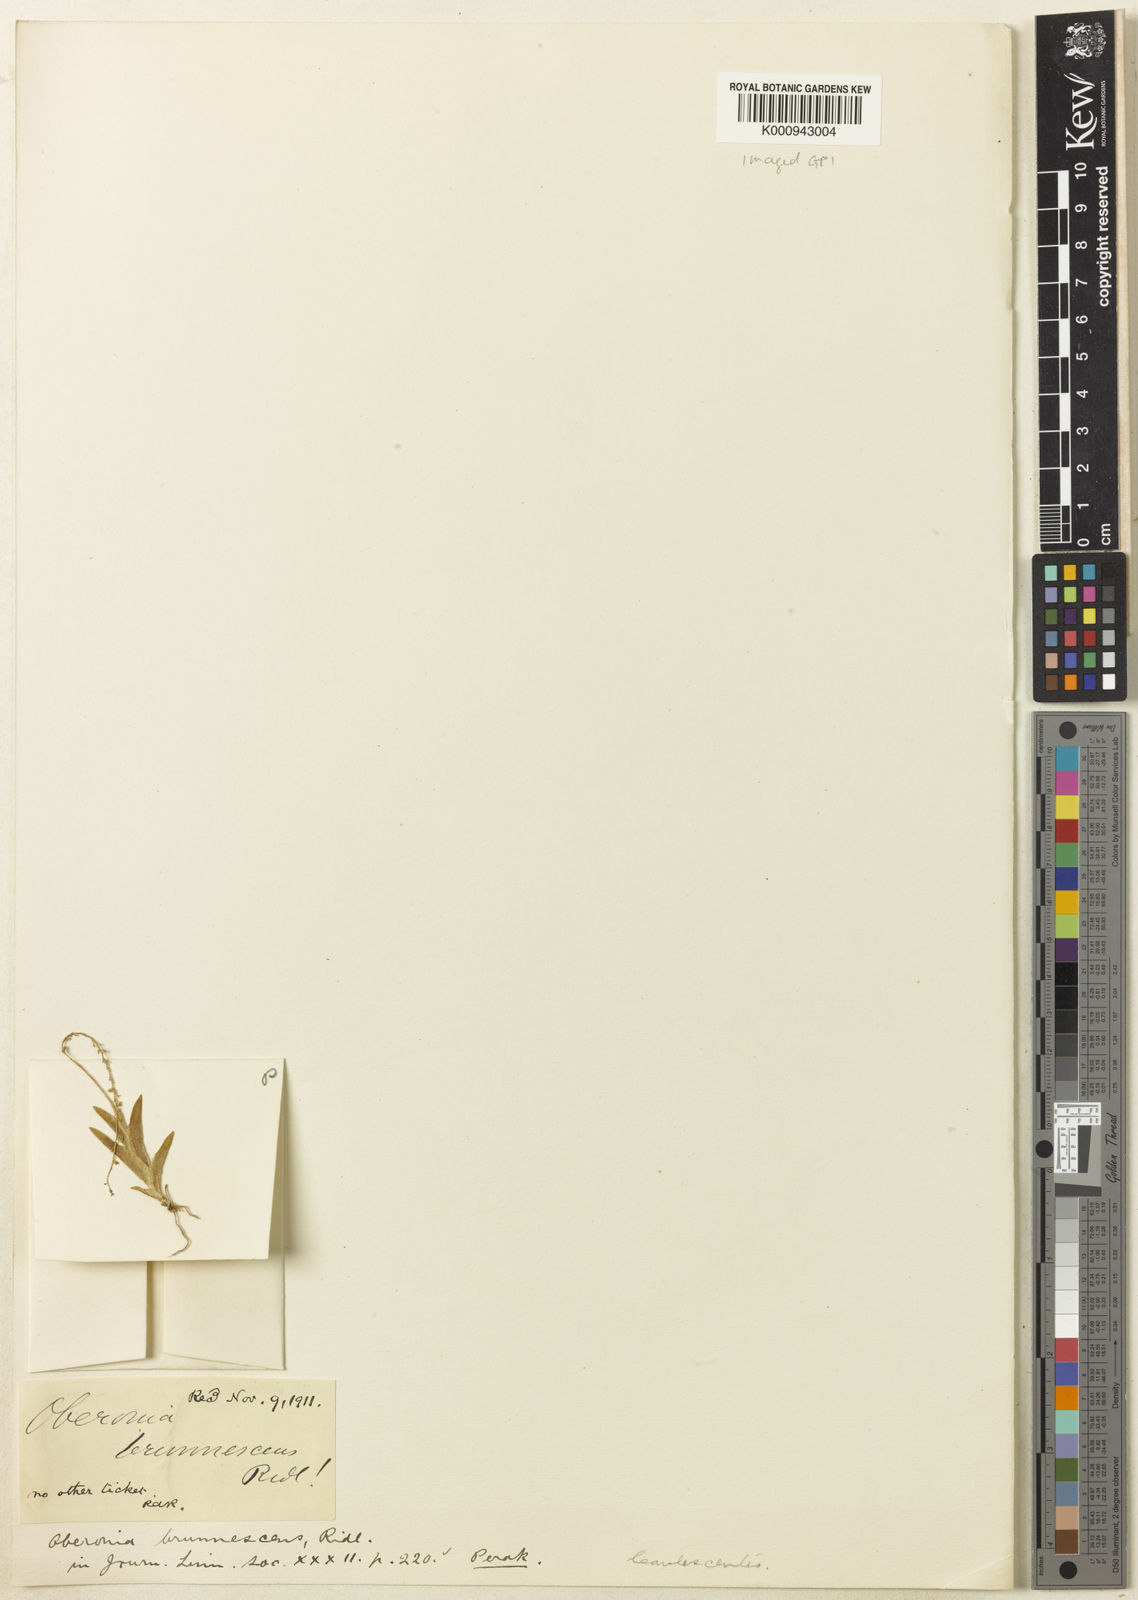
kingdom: Plantae
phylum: Tracheophyta
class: Liliopsida
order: Asparagales
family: Orchidaceae
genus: Oberonia
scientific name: Oberonia prainiana
